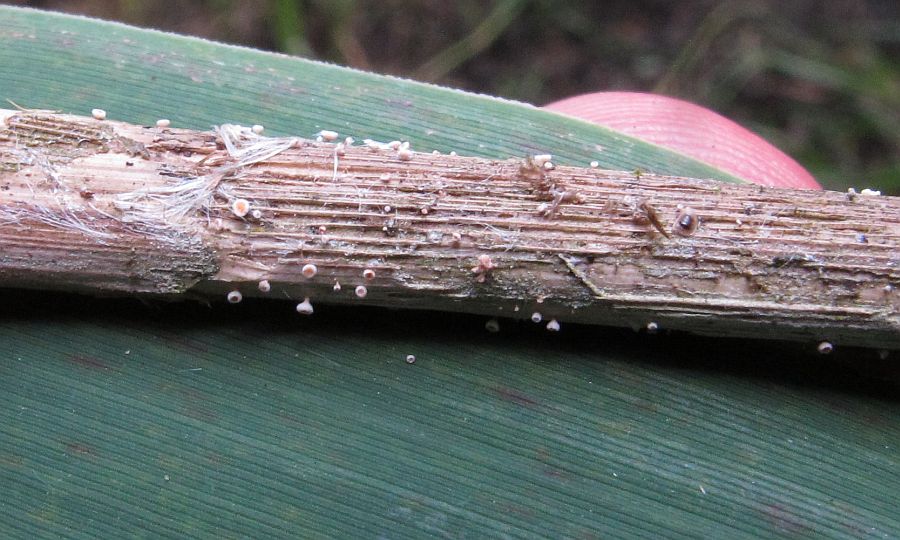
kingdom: Fungi
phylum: Ascomycota
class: Leotiomycetes
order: Helotiales
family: Lachnaceae
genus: Lachnum
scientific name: Lachnum controversum
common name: tagrør-frynseskive
